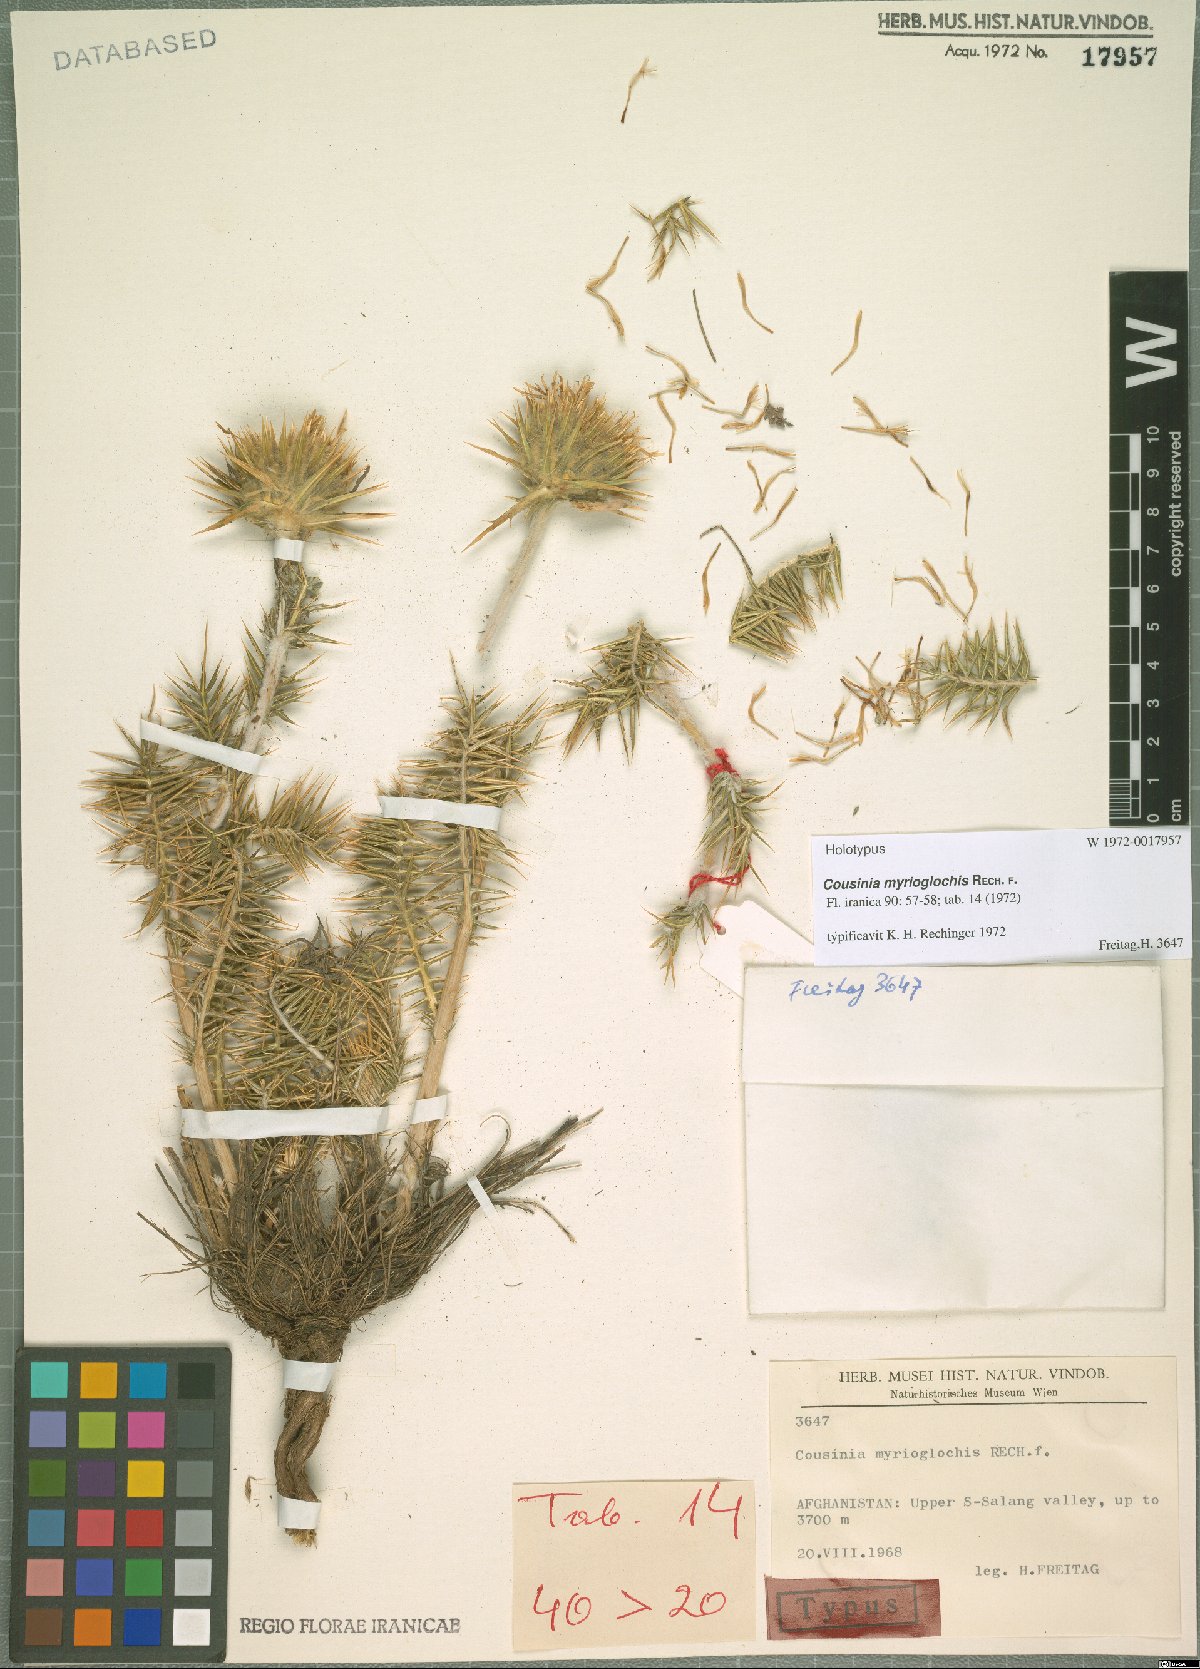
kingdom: Plantae
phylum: Tracheophyta
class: Magnoliopsida
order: Asterales
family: Asteraceae
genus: Cousinia
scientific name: Cousinia myrioglochis
